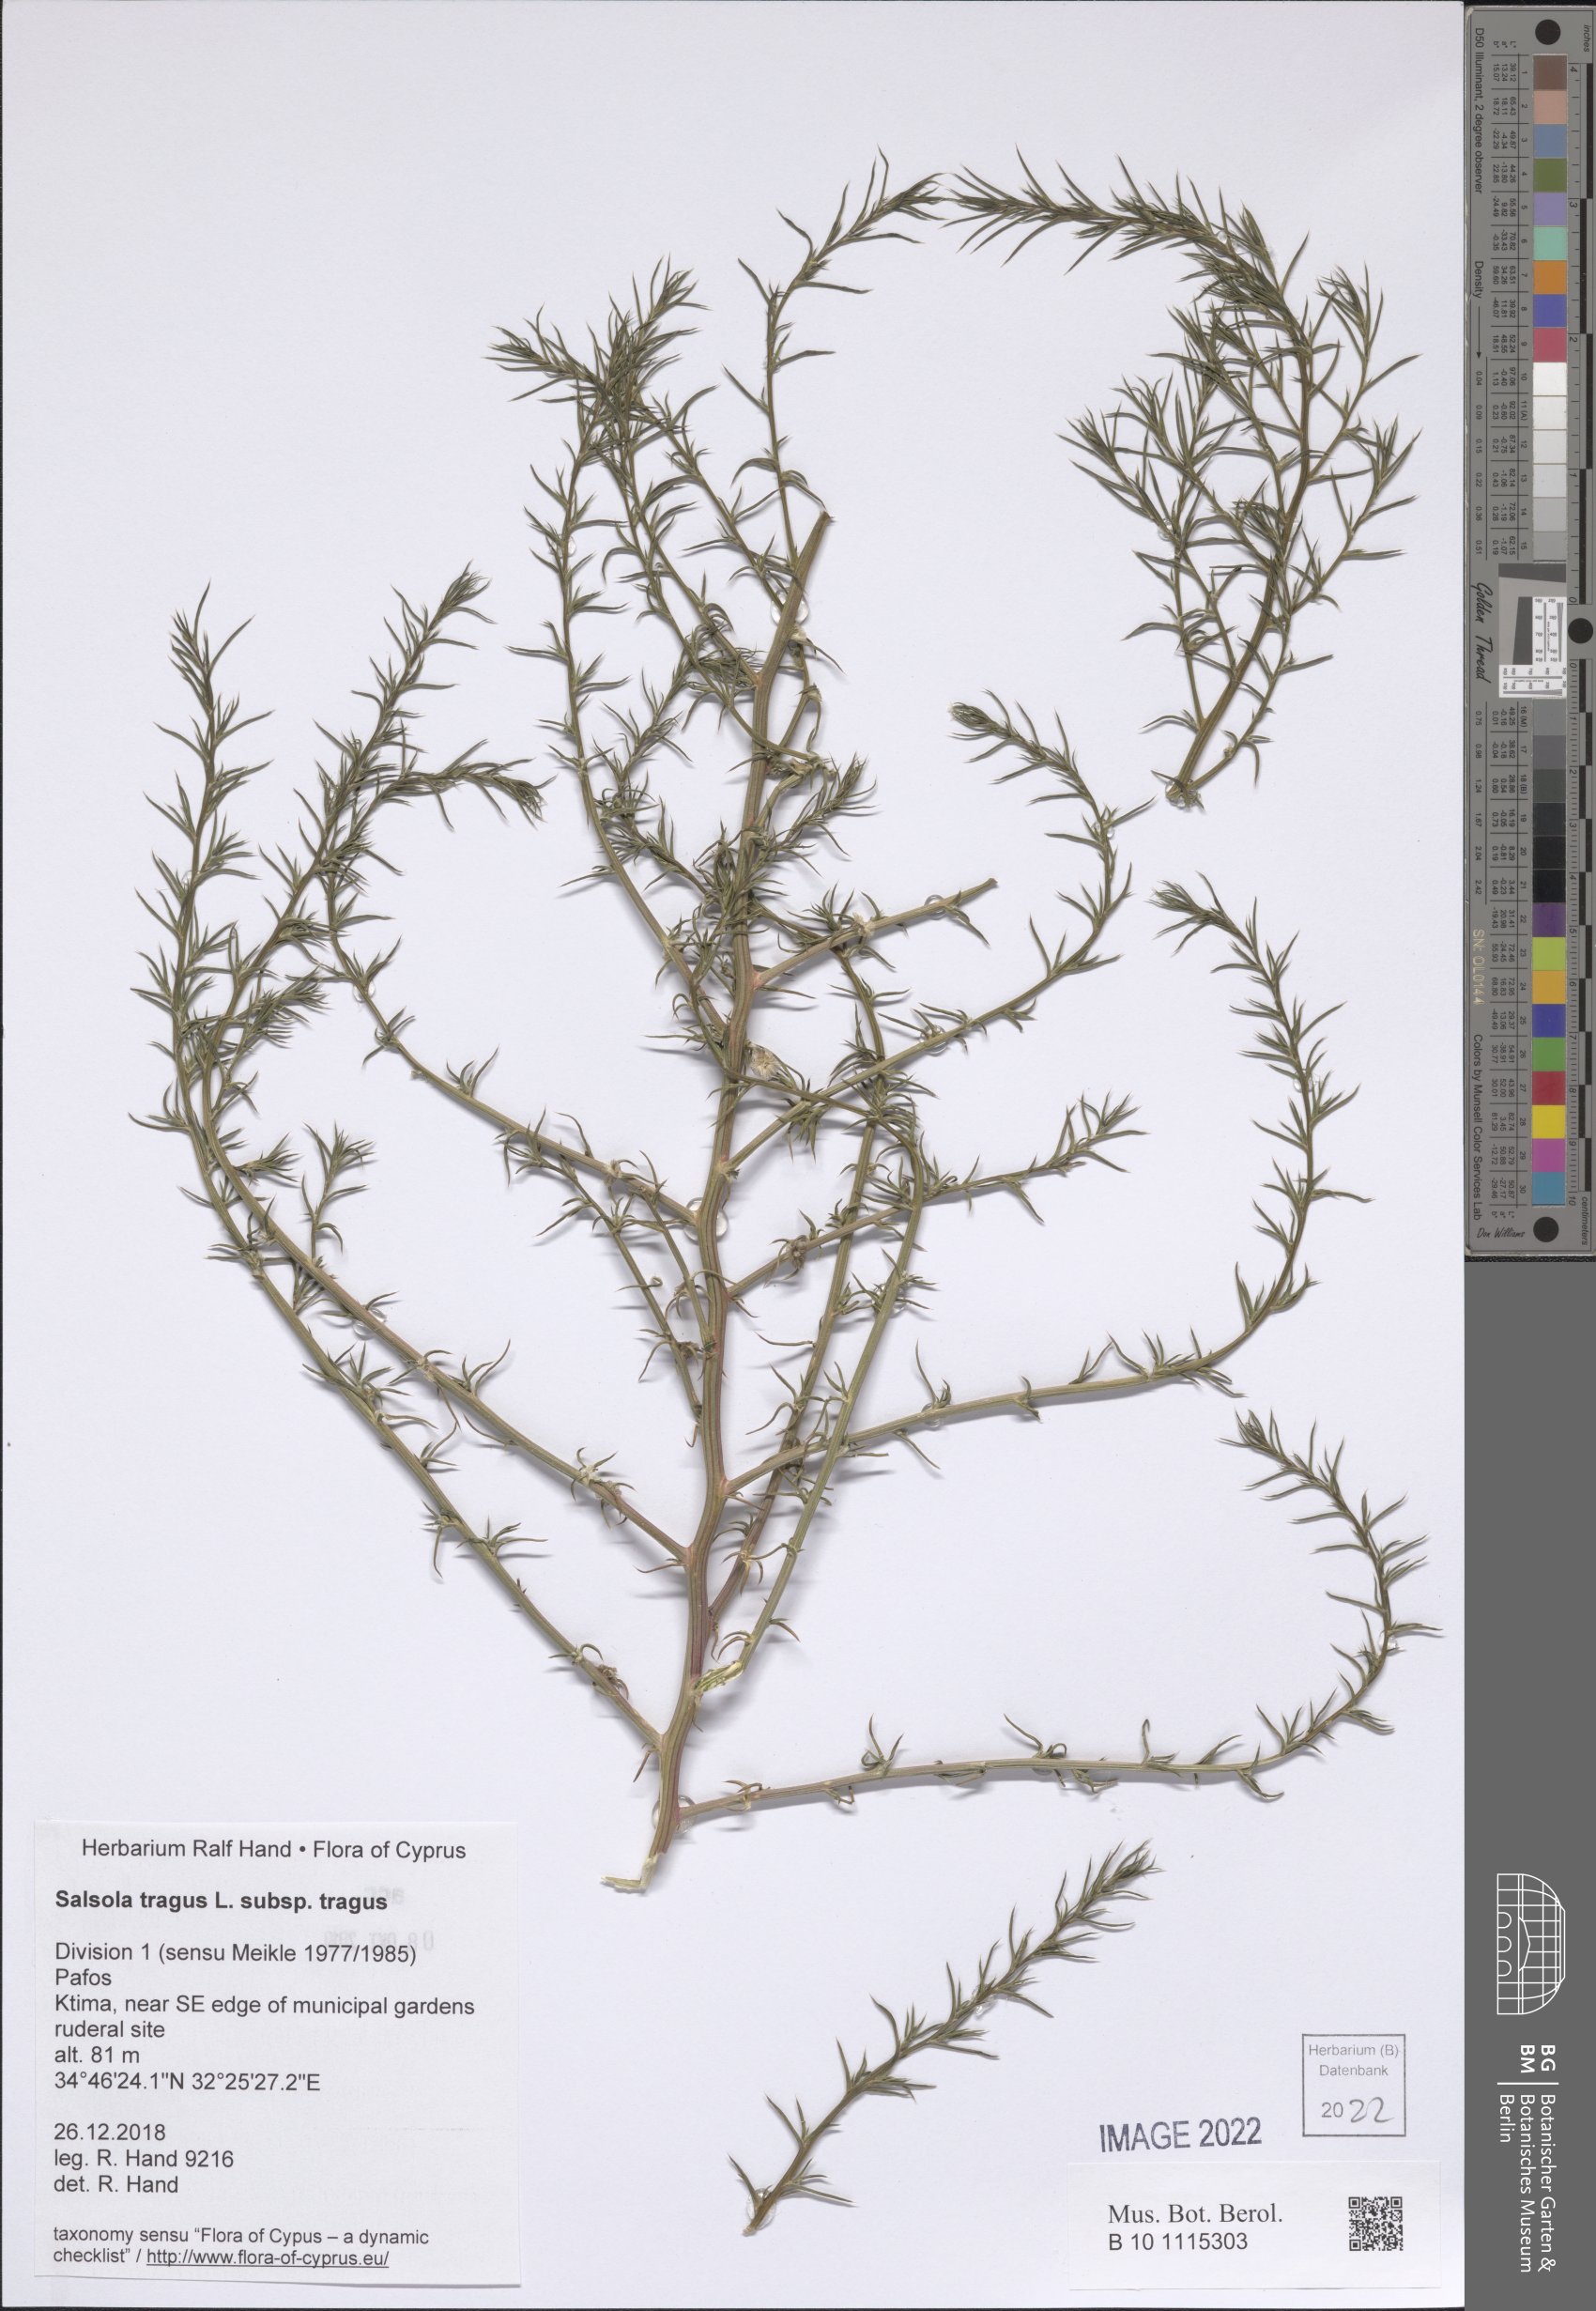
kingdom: Plantae
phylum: Tracheophyta
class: Magnoliopsida
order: Caryophyllales
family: Amaranthaceae
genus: Salsola
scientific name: Salsola tragus
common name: Prickly russian thistle
